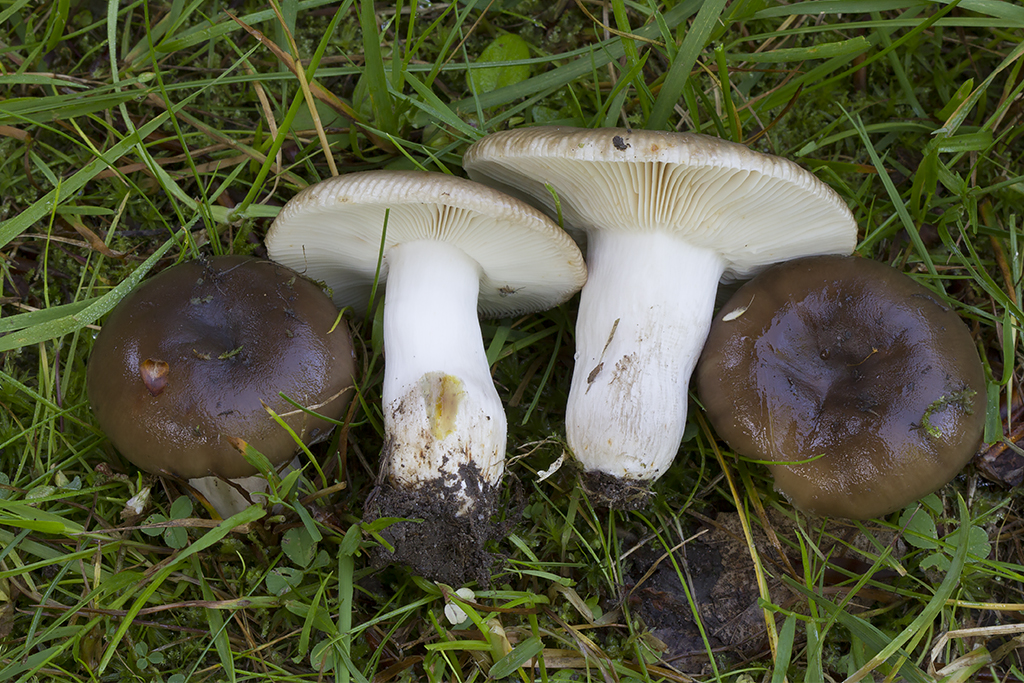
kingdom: Fungi
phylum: Basidiomycota
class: Agaricomycetes
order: Russulales
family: Russulaceae
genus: Russula
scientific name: Russula sororia
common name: brun kam-skørhat
